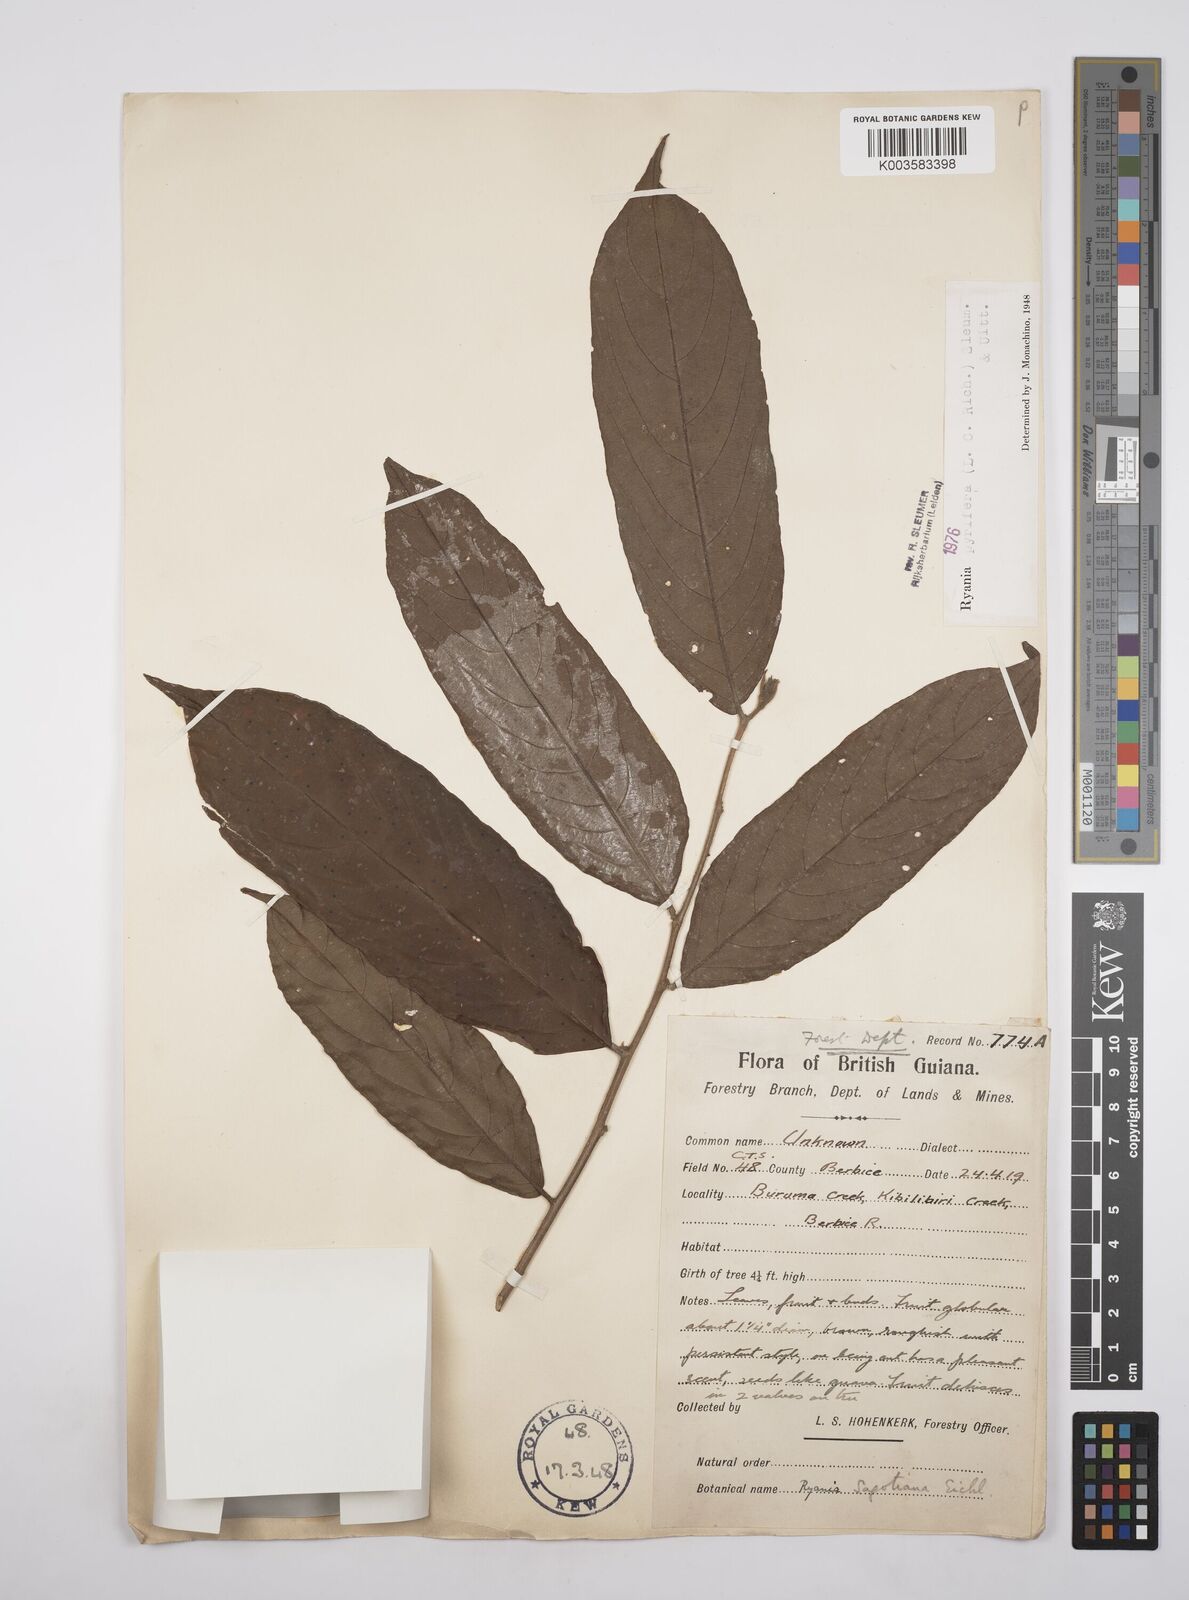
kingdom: Plantae
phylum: Tracheophyta
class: Magnoliopsida
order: Malpighiales
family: Salicaceae
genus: Ryania
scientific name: Ryania pyrifera
